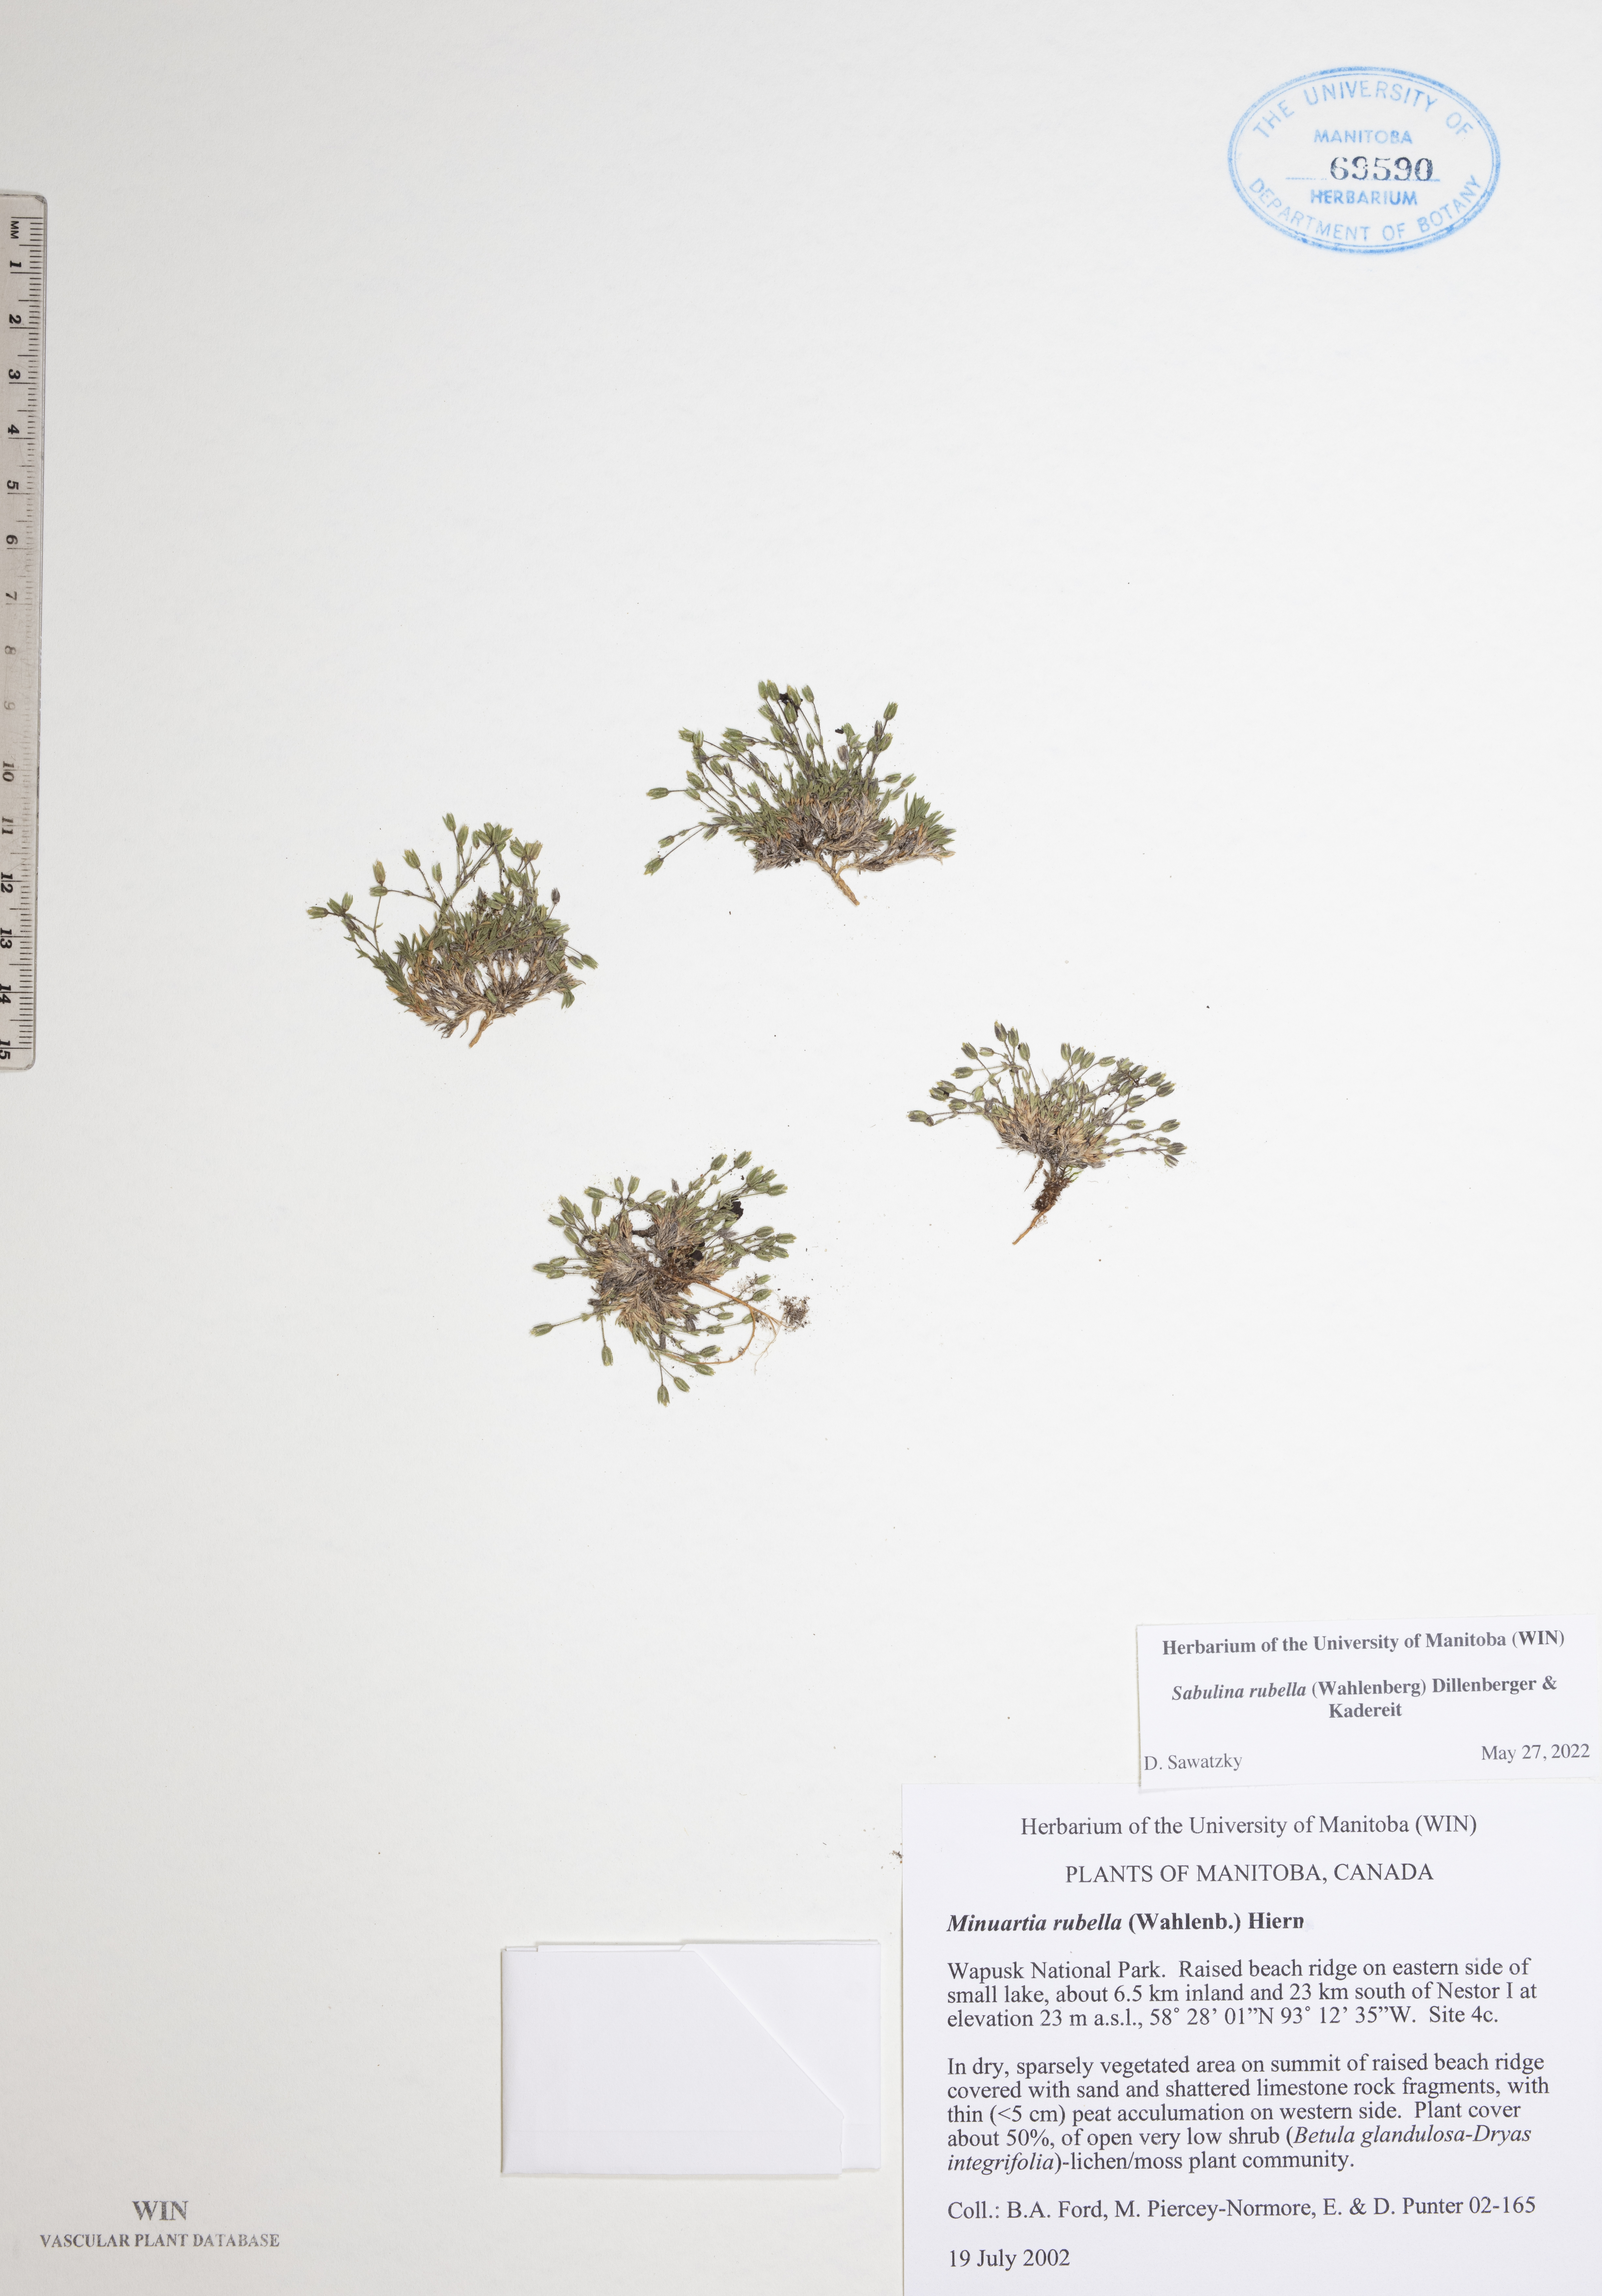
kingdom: Plantae
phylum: Tracheophyta
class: Magnoliopsida
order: Caryophyllales
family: Caryophyllaceae
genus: Sabulina
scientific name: Sabulina rubella
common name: Beautiful sandwort
